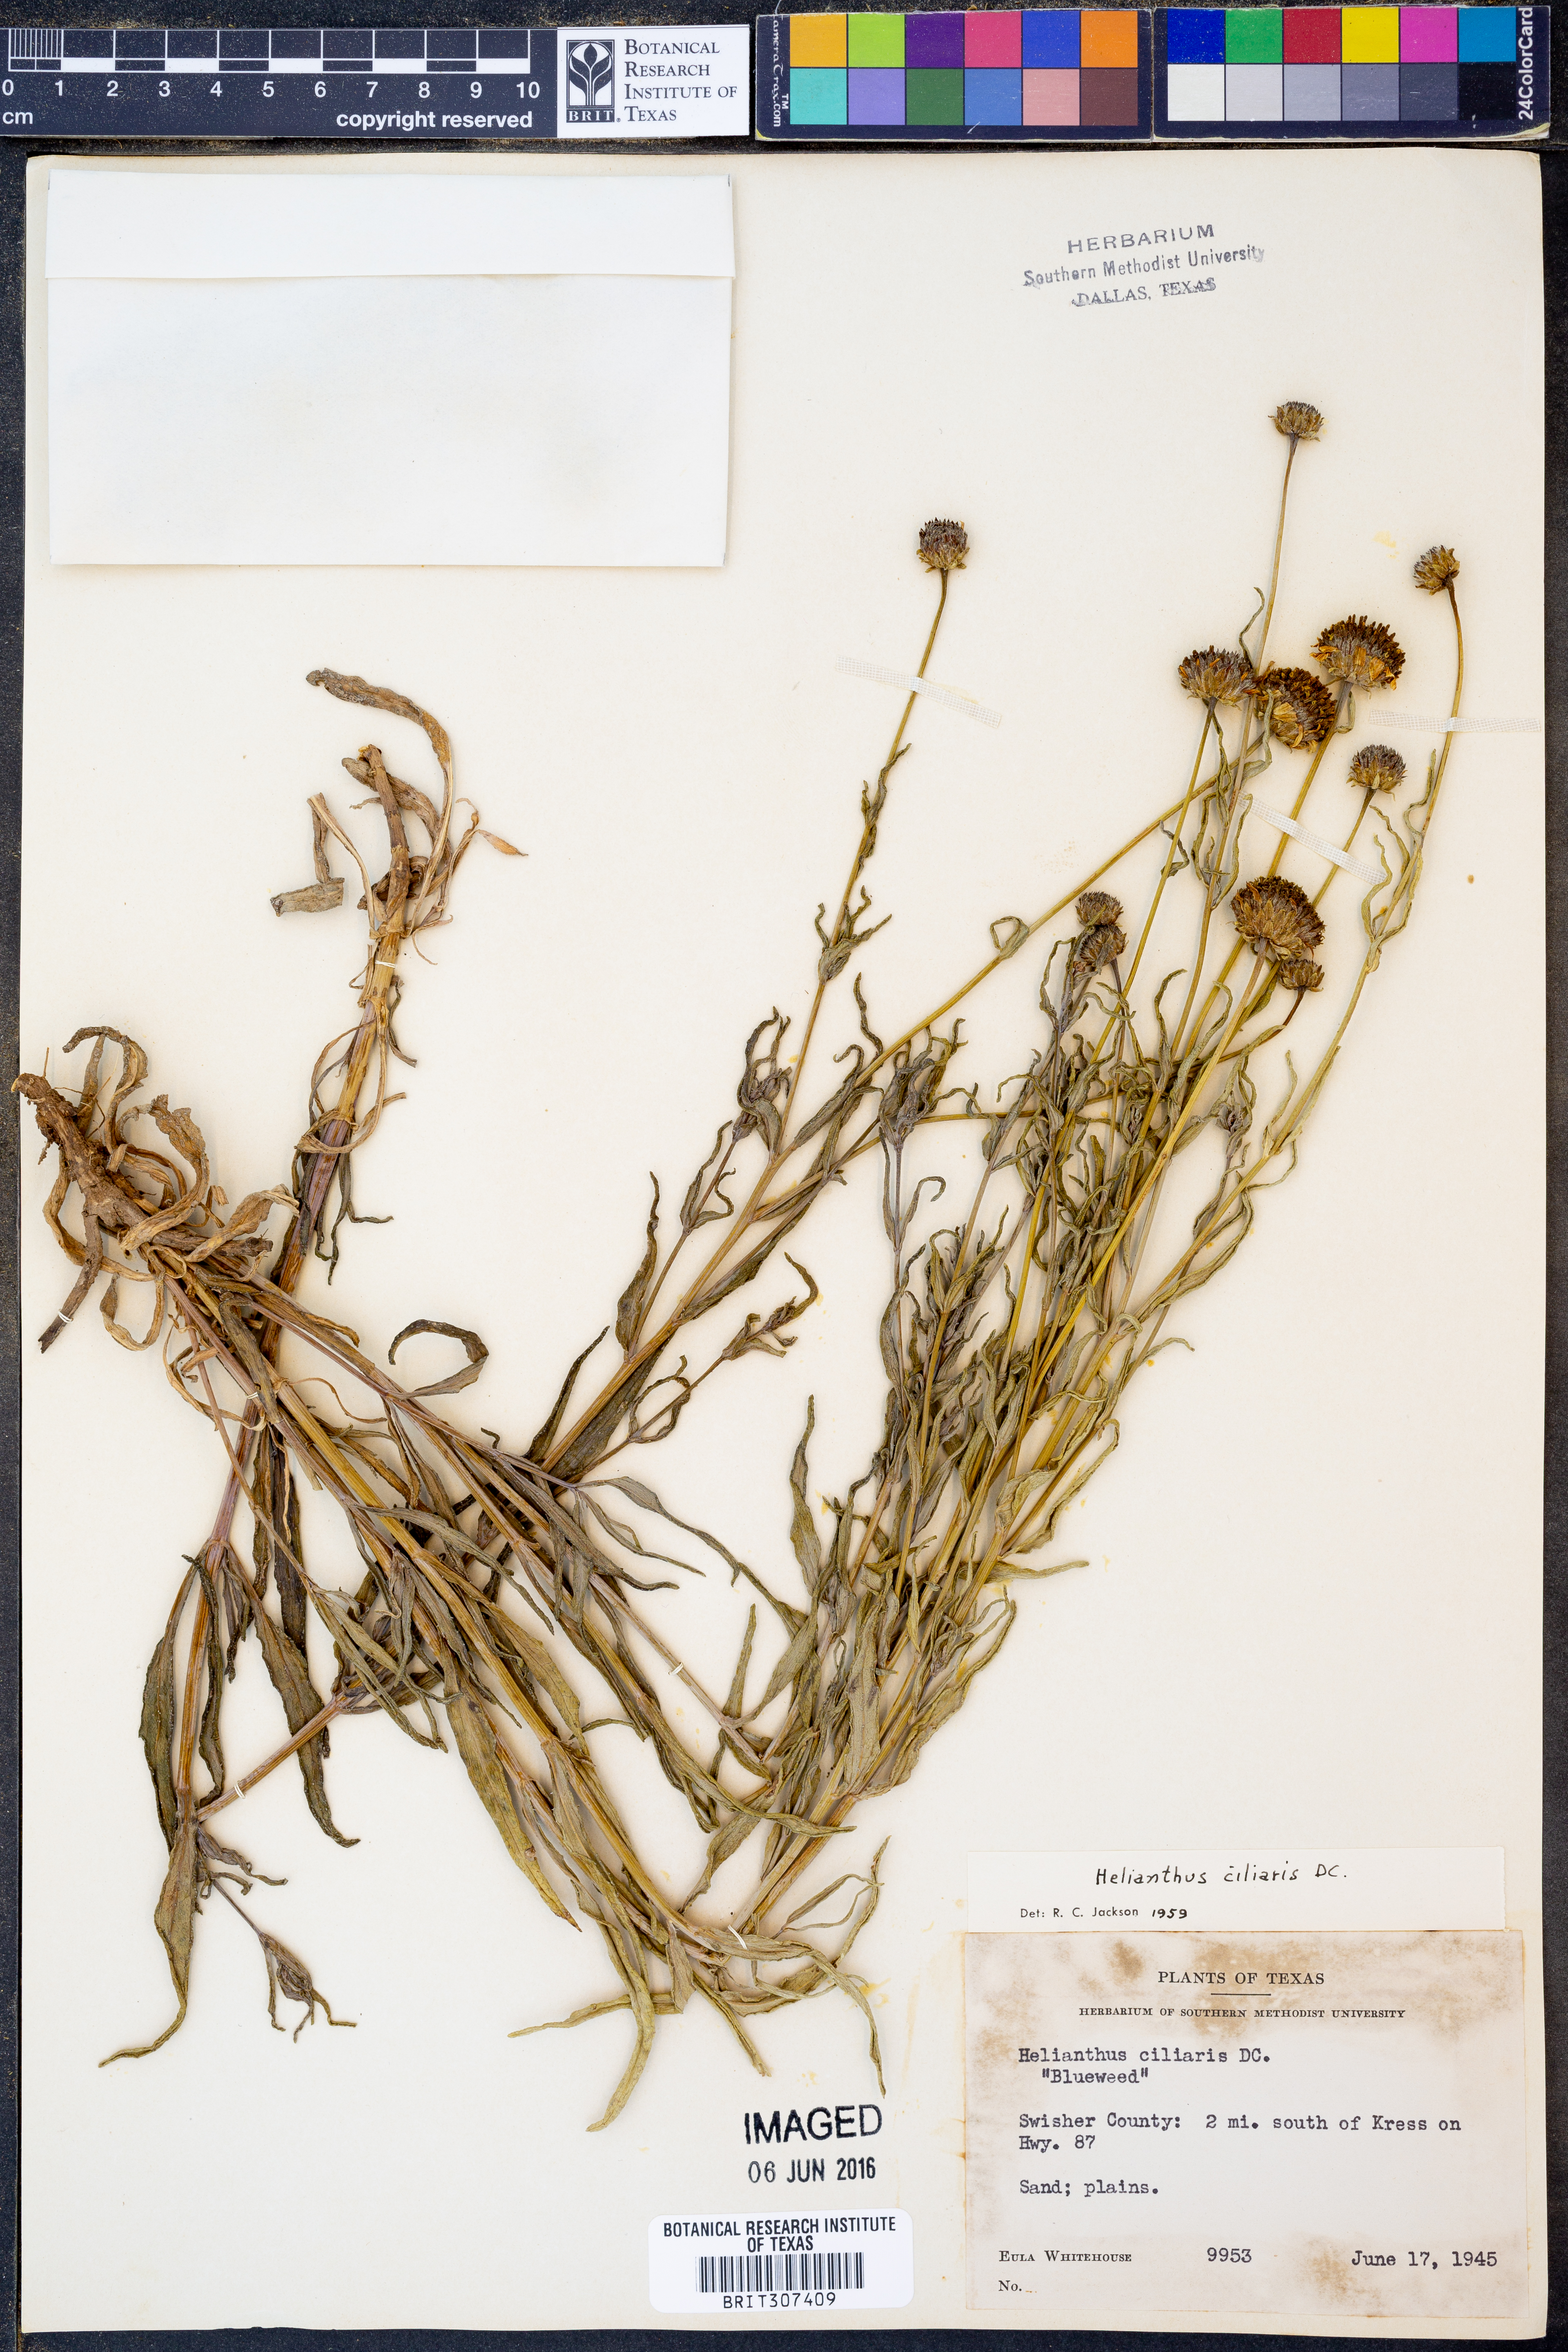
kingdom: Plantae
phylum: Tracheophyta
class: Magnoliopsida
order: Asterales
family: Asteraceae
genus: Helianthus
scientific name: Helianthus ciliaris
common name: Texas blueweed
